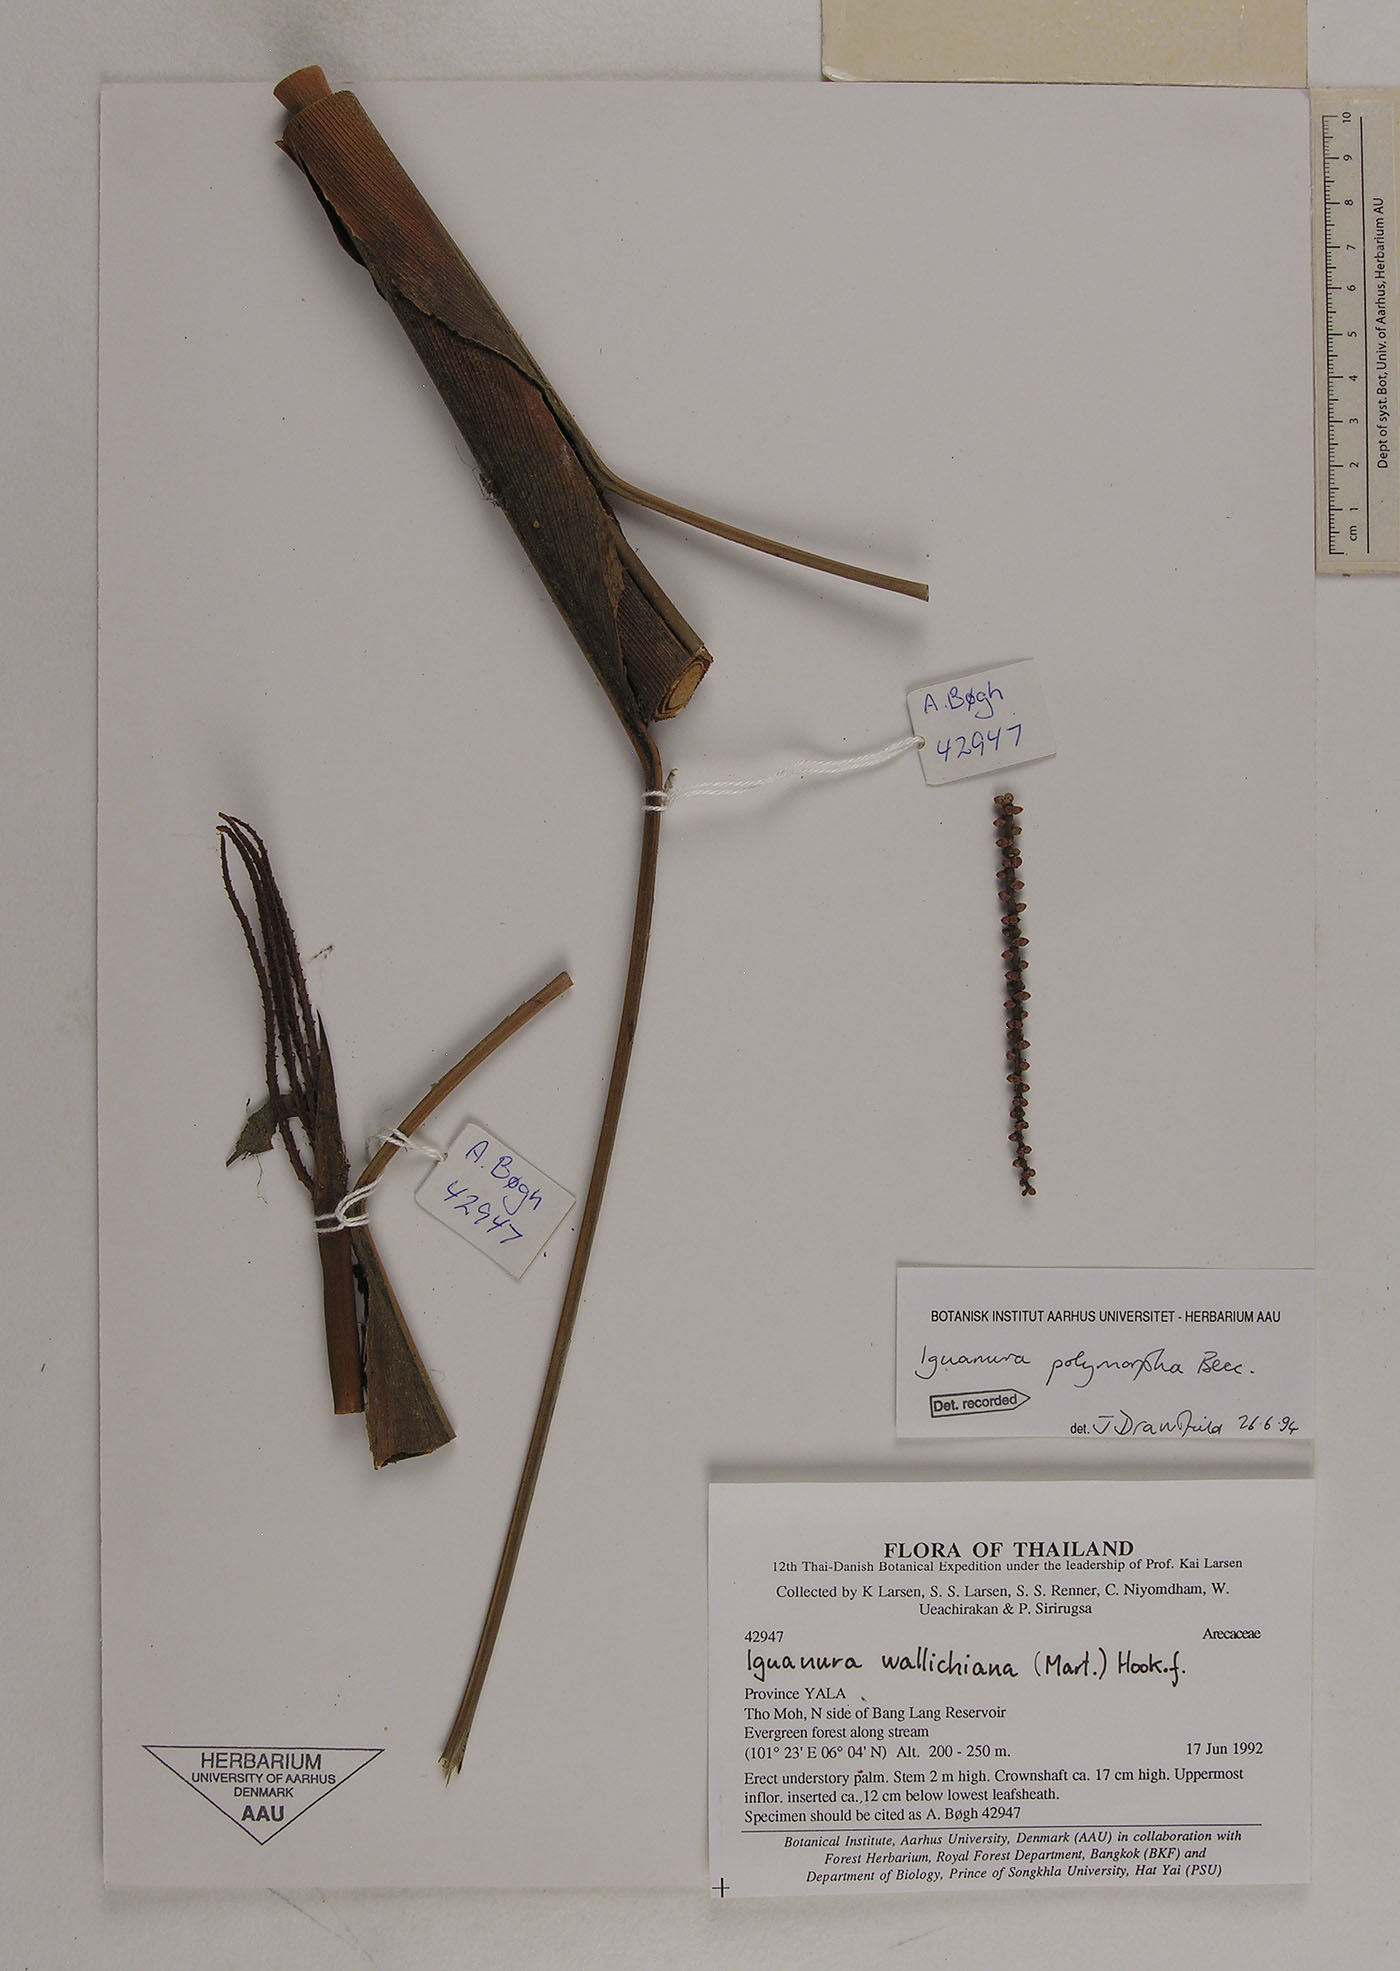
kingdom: Plantae
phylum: Tracheophyta
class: Liliopsida
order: Arecales
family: Arecaceae
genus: Iguanura
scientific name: Iguanura polymorpha
